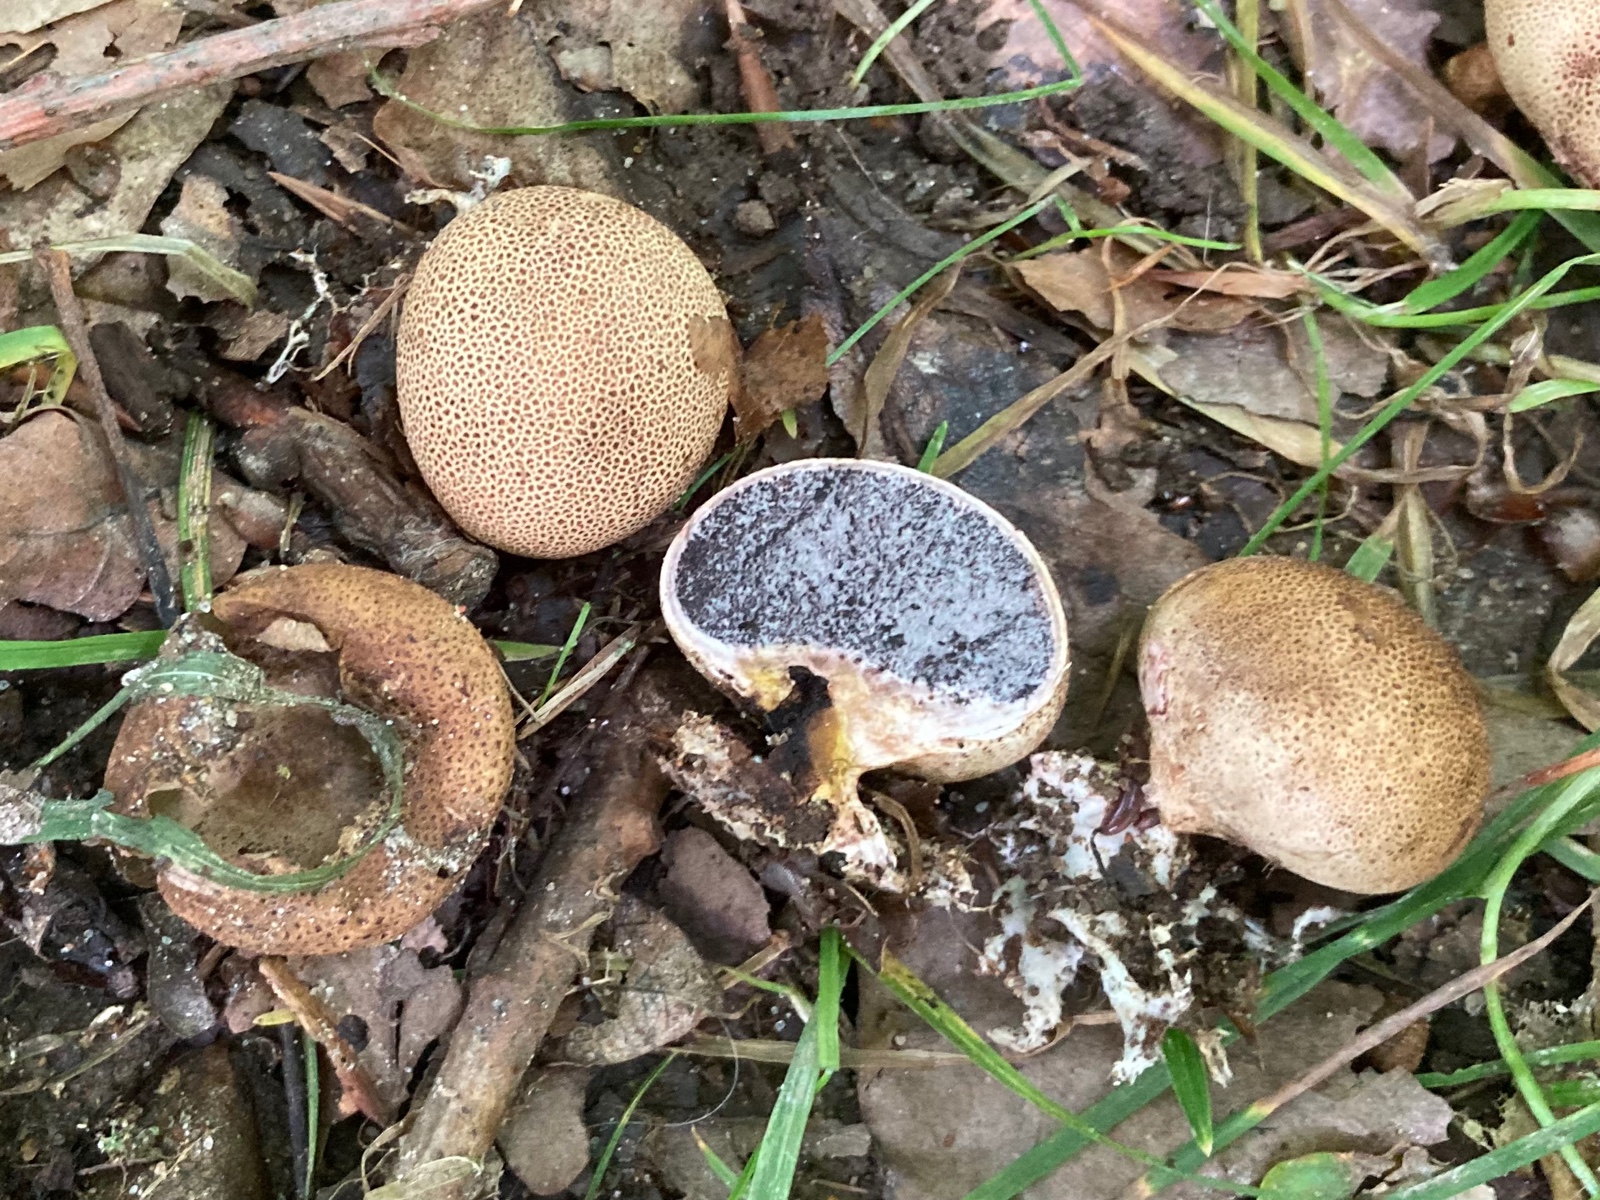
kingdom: Fungi
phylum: Basidiomycota
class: Agaricomycetes
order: Boletales
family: Sclerodermataceae
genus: Scleroderma
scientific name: Scleroderma areolatum
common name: plettet bruskbold
